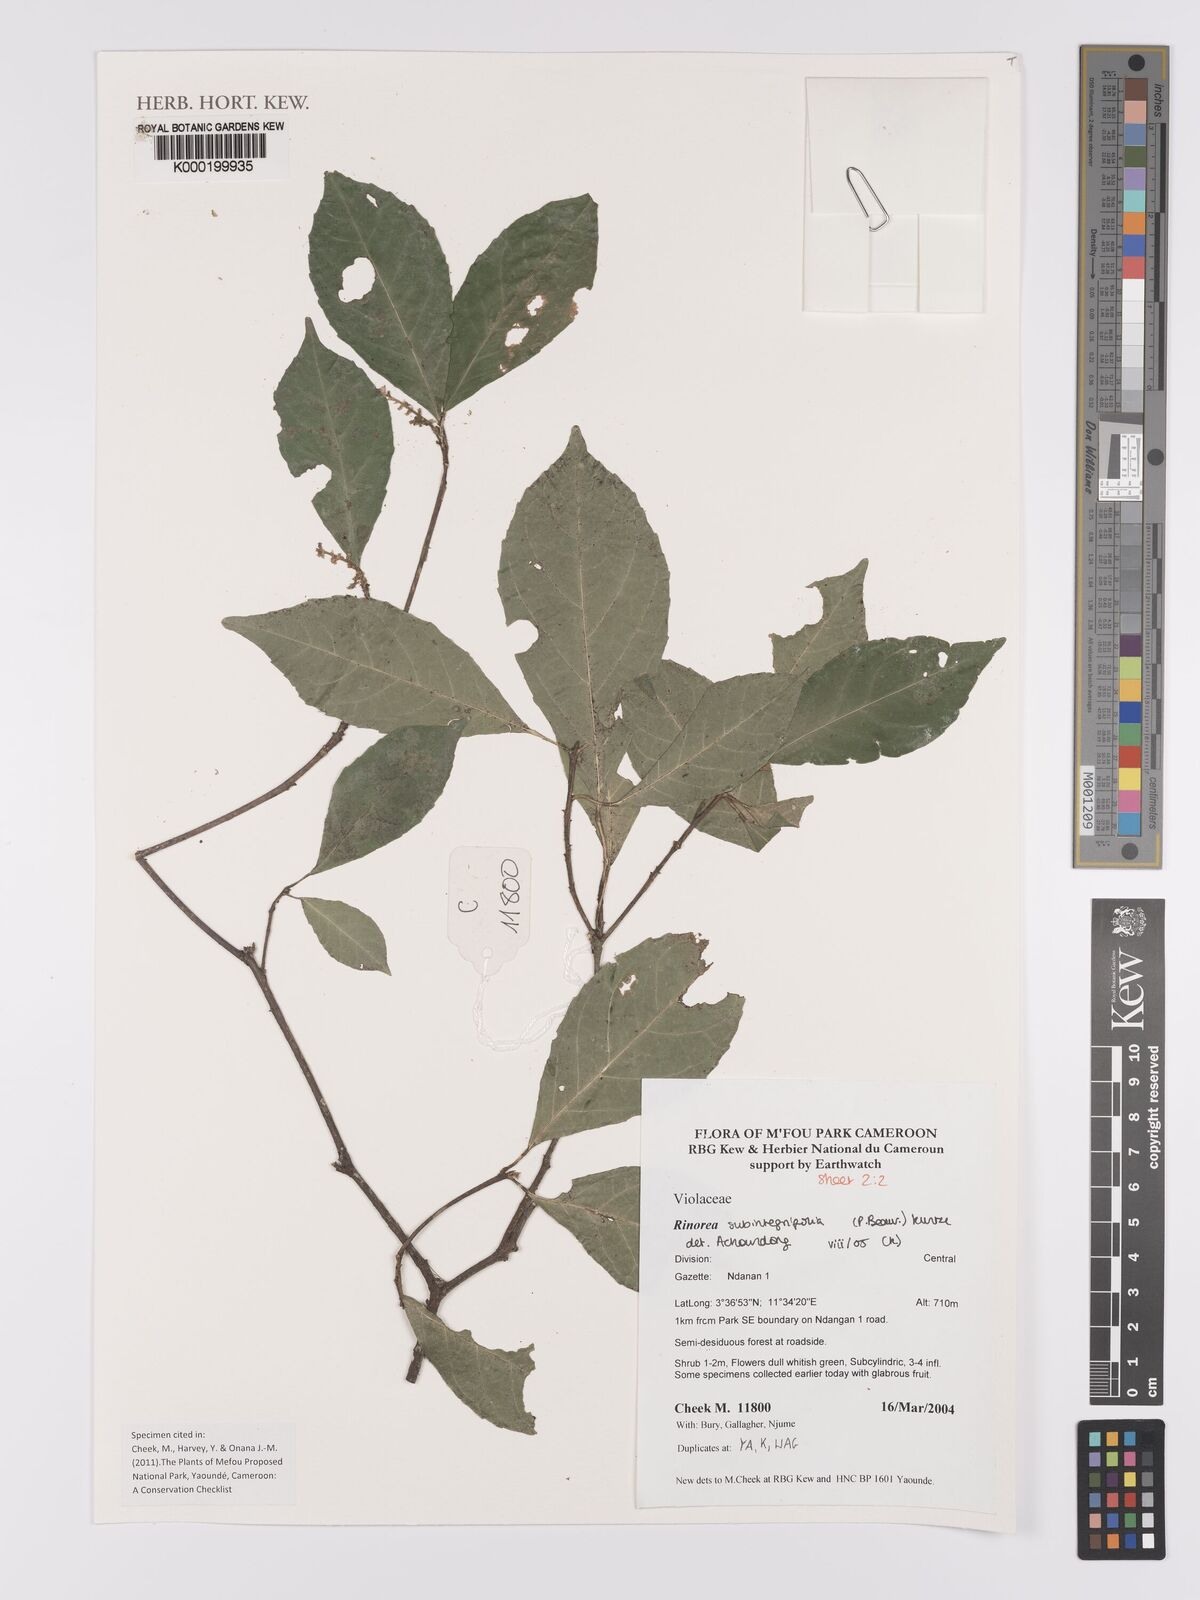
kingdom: Plantae
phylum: Tracheophyta
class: Magnoliopsida
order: Malpighiales
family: Violaceae
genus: Rinorea
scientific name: Rinorea subintegrifolia
